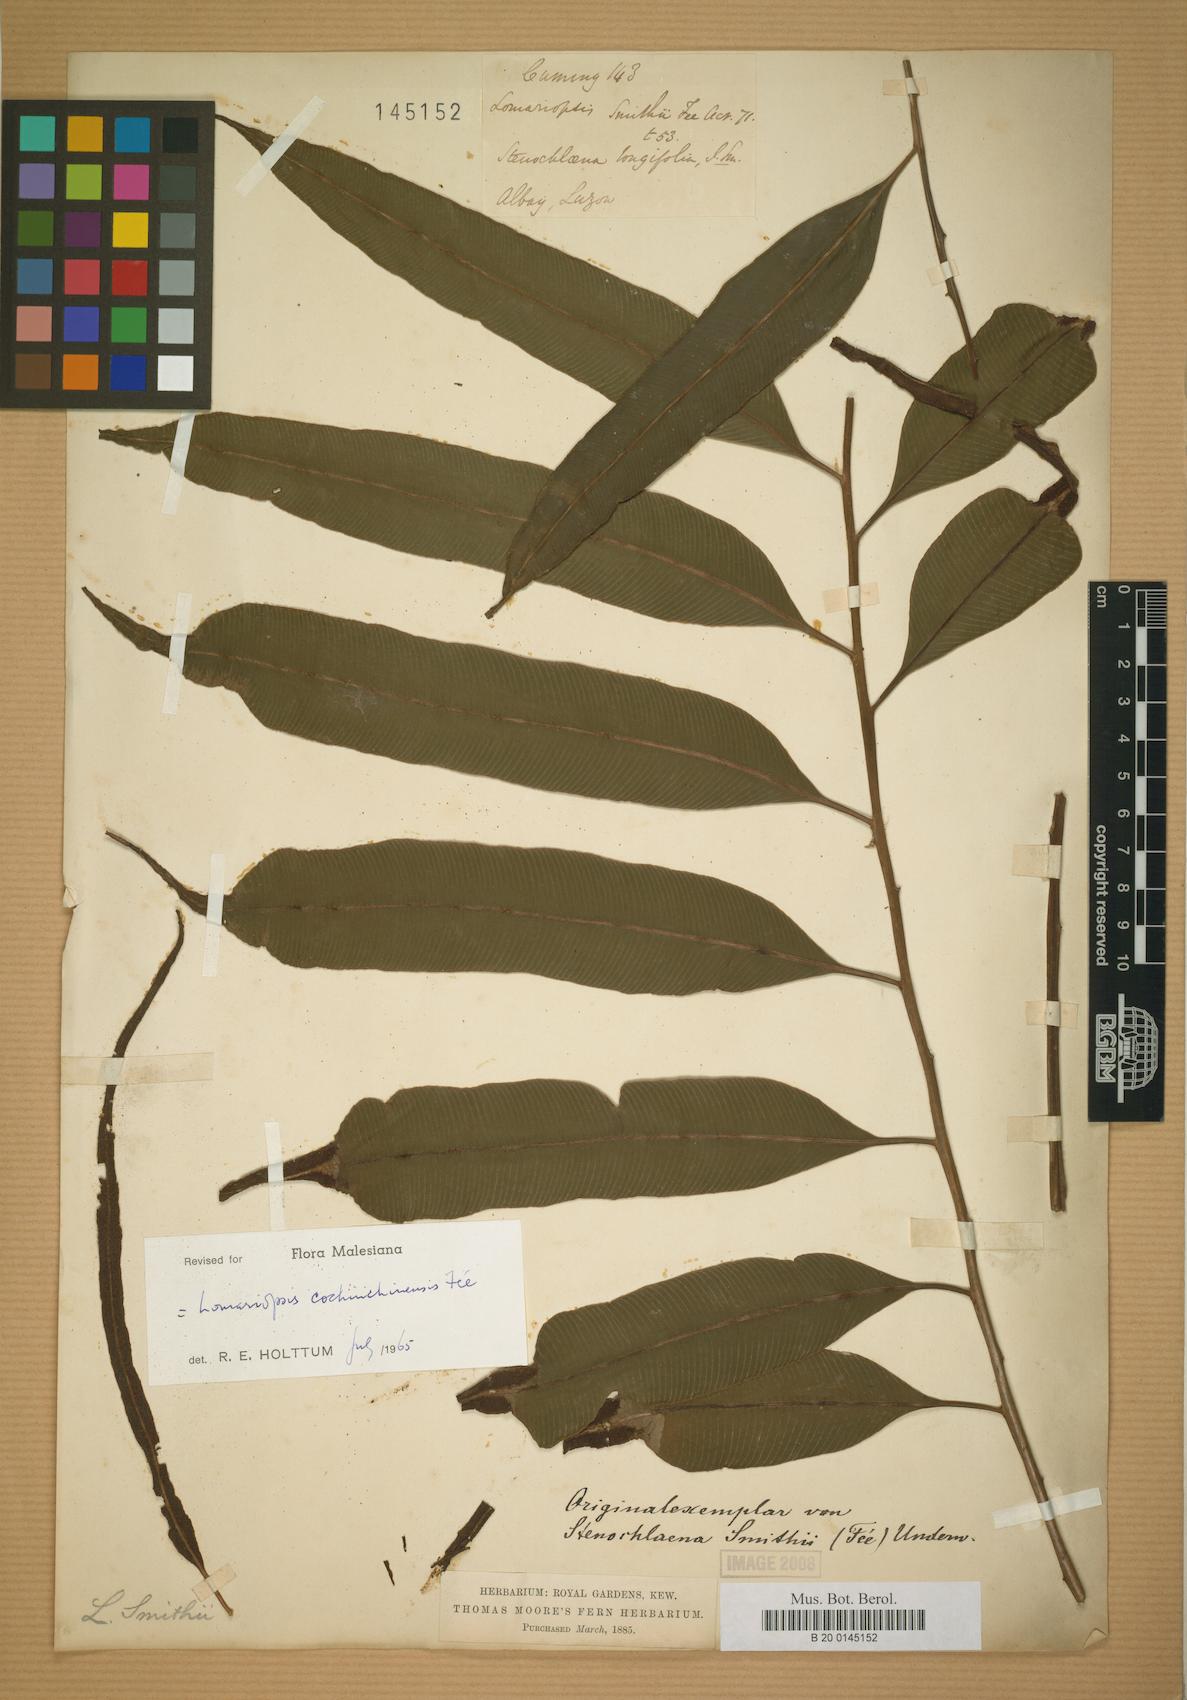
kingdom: Plantae
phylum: Tracheophyta
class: Polypodiopsida
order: Polypodiales
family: Dryopteridaceae
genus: Lomagramma
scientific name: Lomagramma
